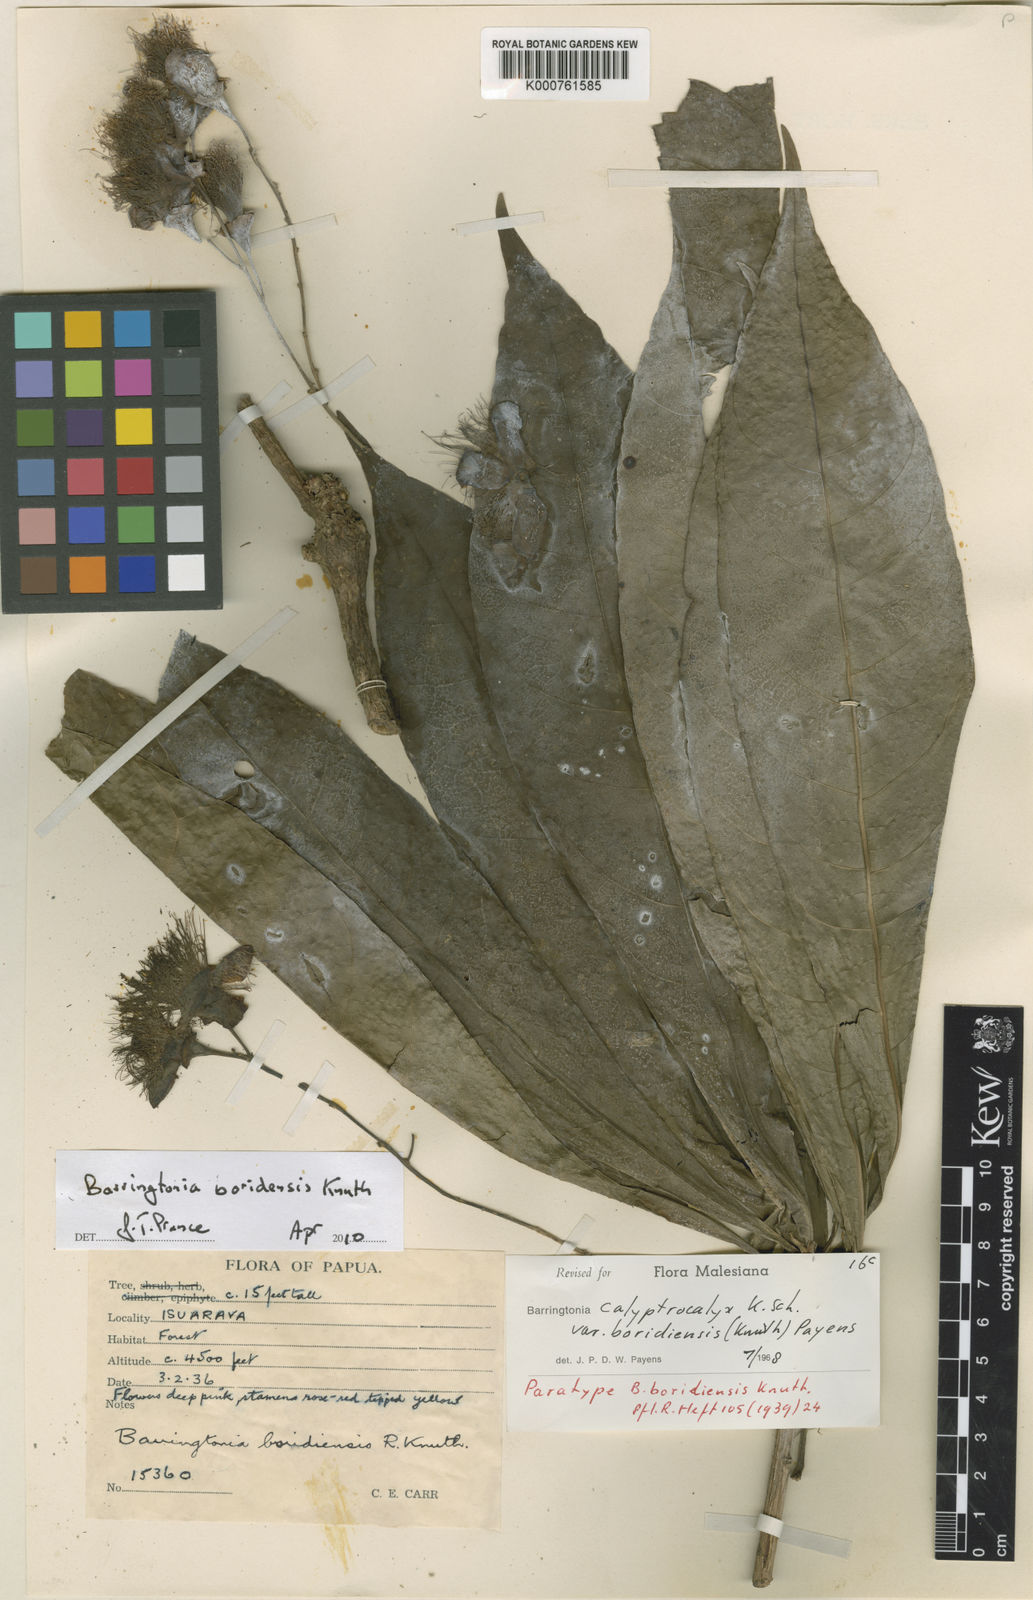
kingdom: Plantae
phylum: Tracheophyta
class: Magnoliopsida
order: Ericales
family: Lecythidaceae
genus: Barringtonia
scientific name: Barringtonia calyptrocalyx
